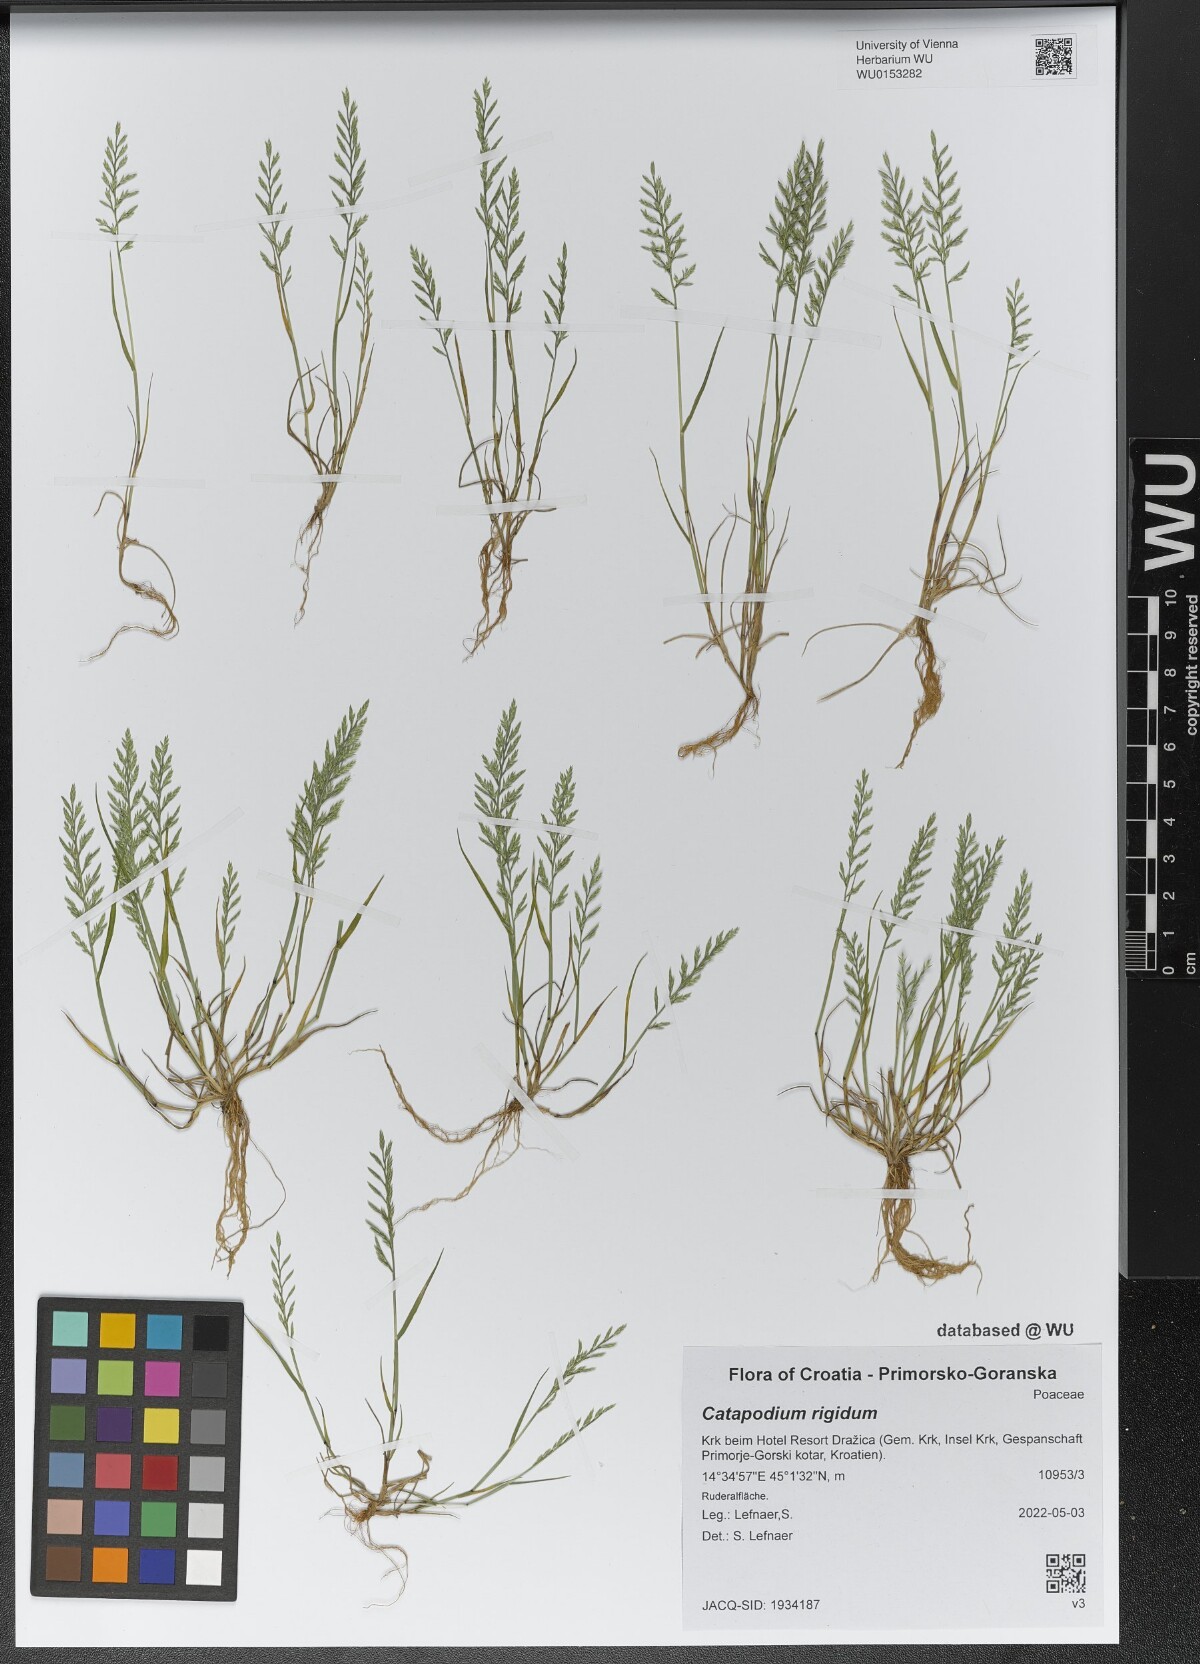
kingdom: Plantae
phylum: Tracheophyta
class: Liliopsida
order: Poales
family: Poaceae
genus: Catapodium
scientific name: Catapodium rigidum
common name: Fern-grass
